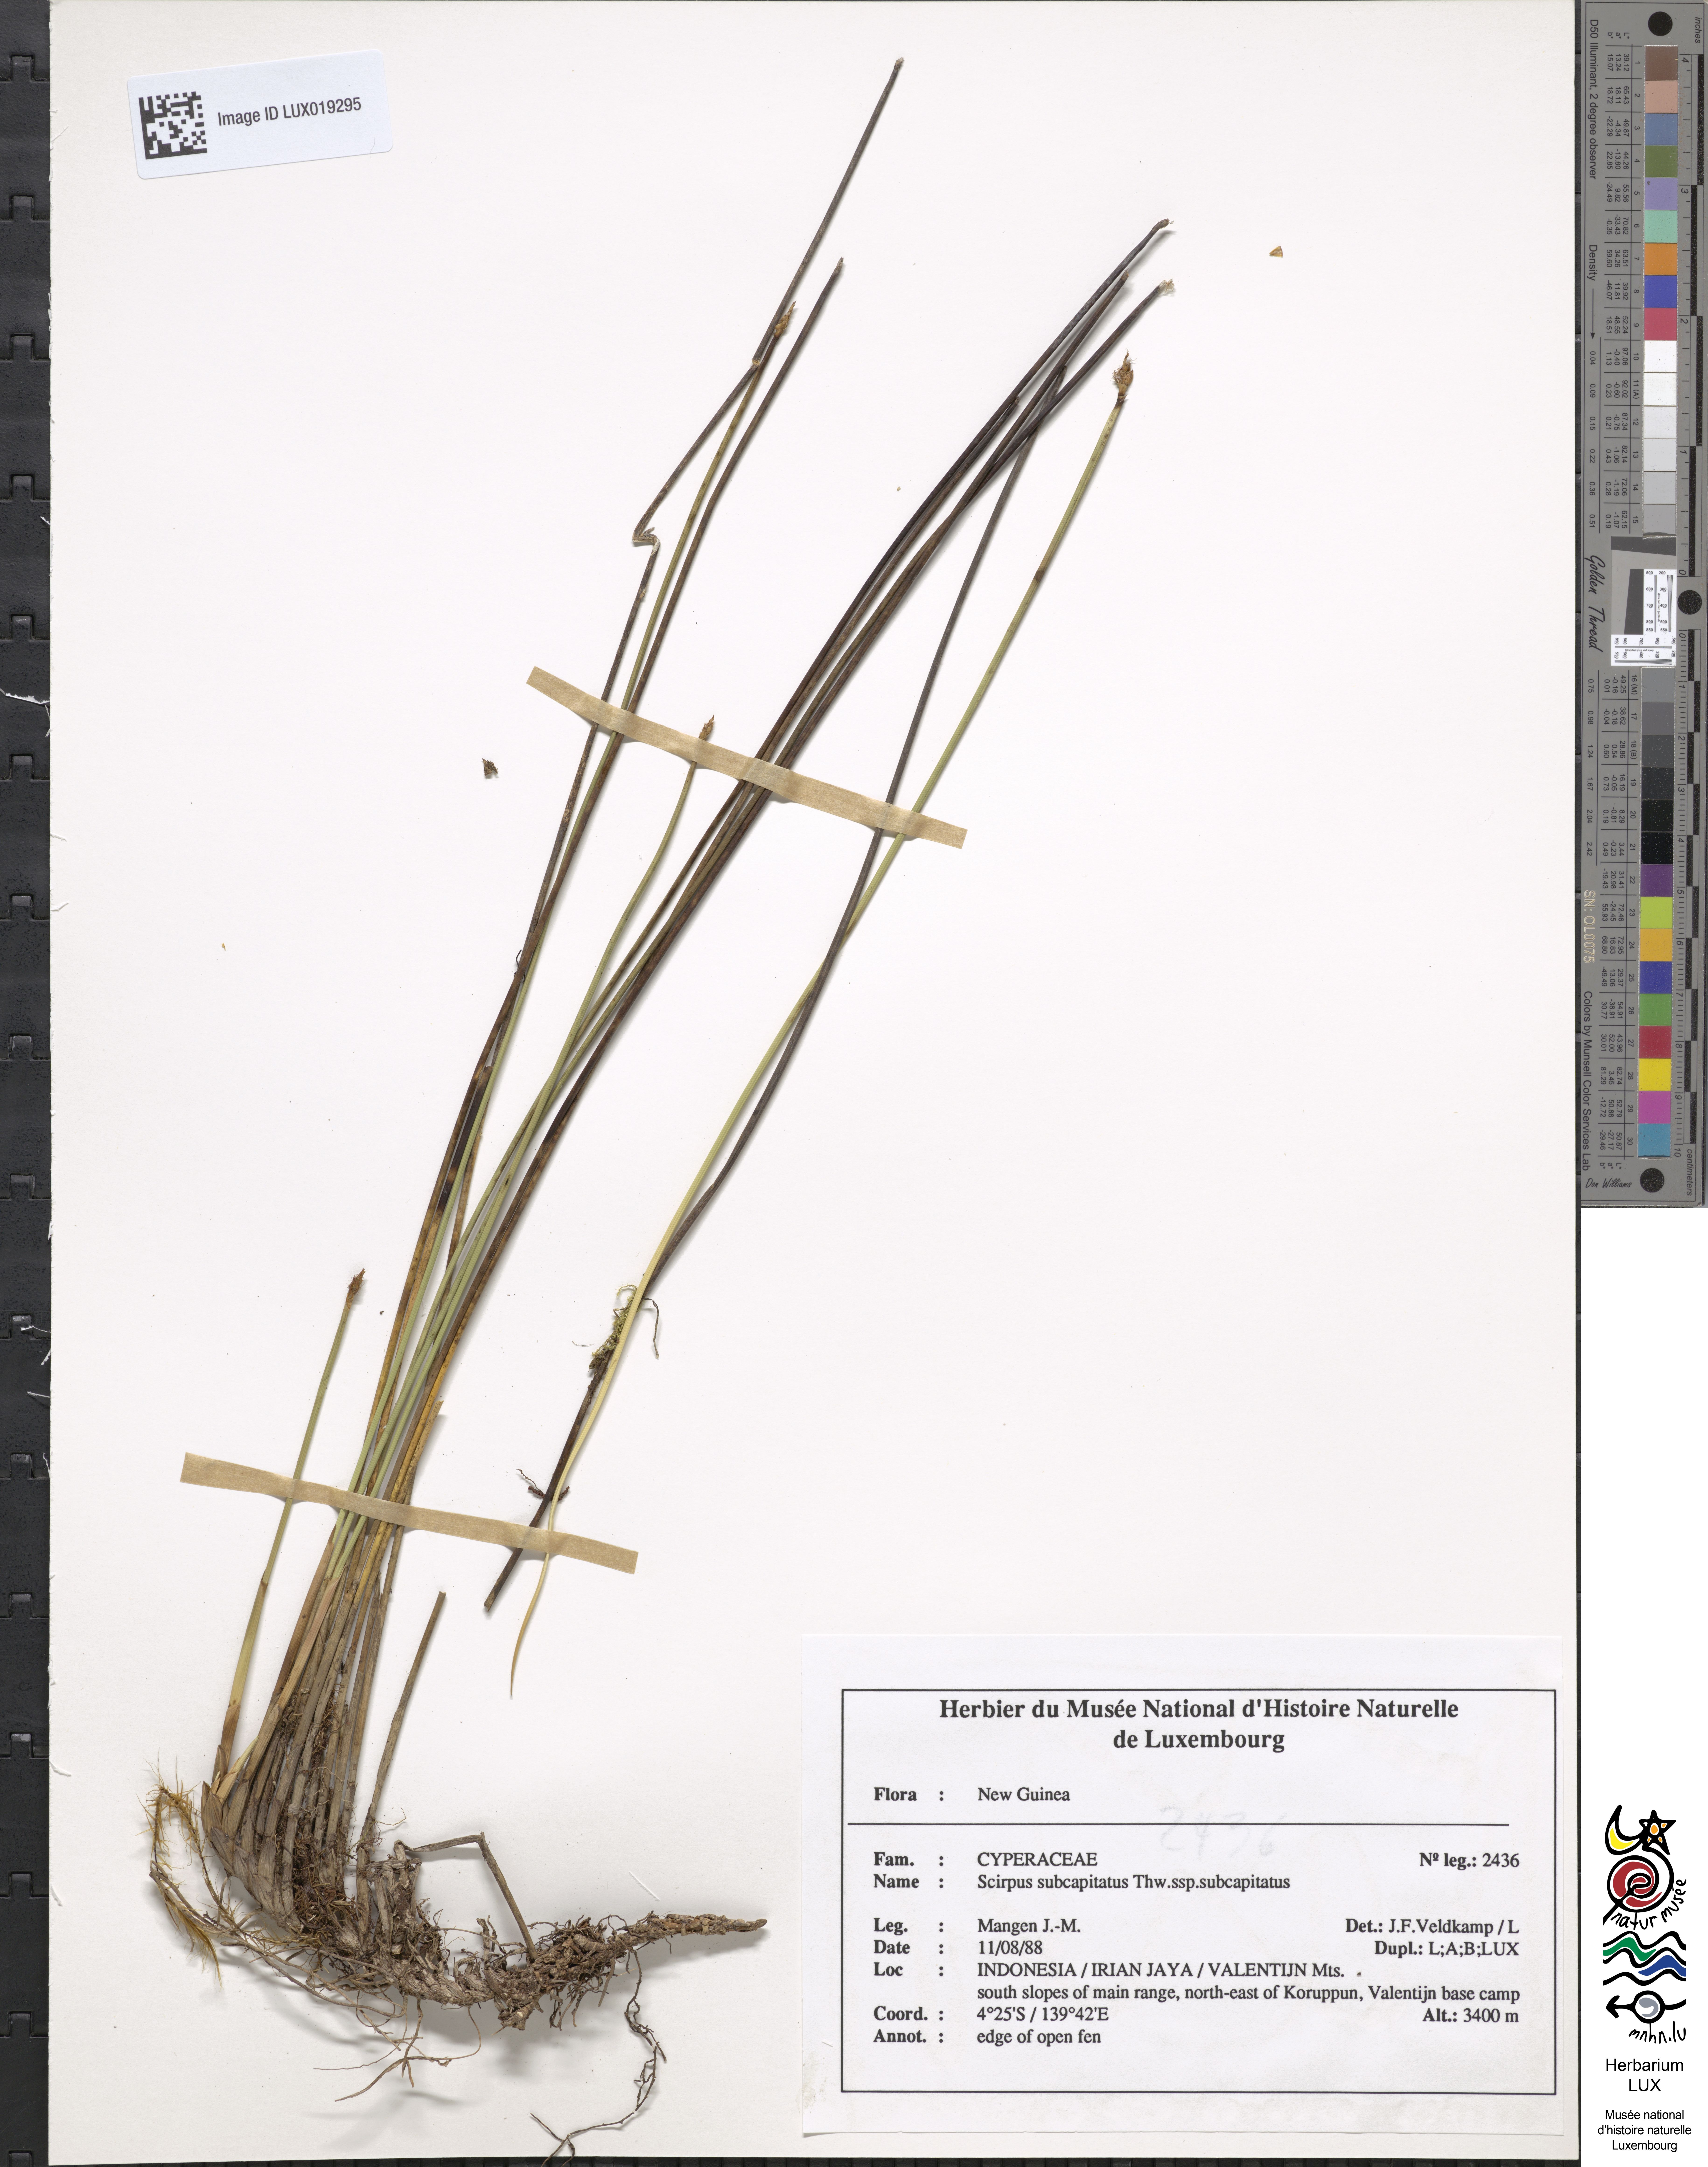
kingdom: Plantae
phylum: Tracheophyta
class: Liliopsida
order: Poales
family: Cyperaceae
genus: Trichophorum
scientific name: Trichophorum subcapitatum
